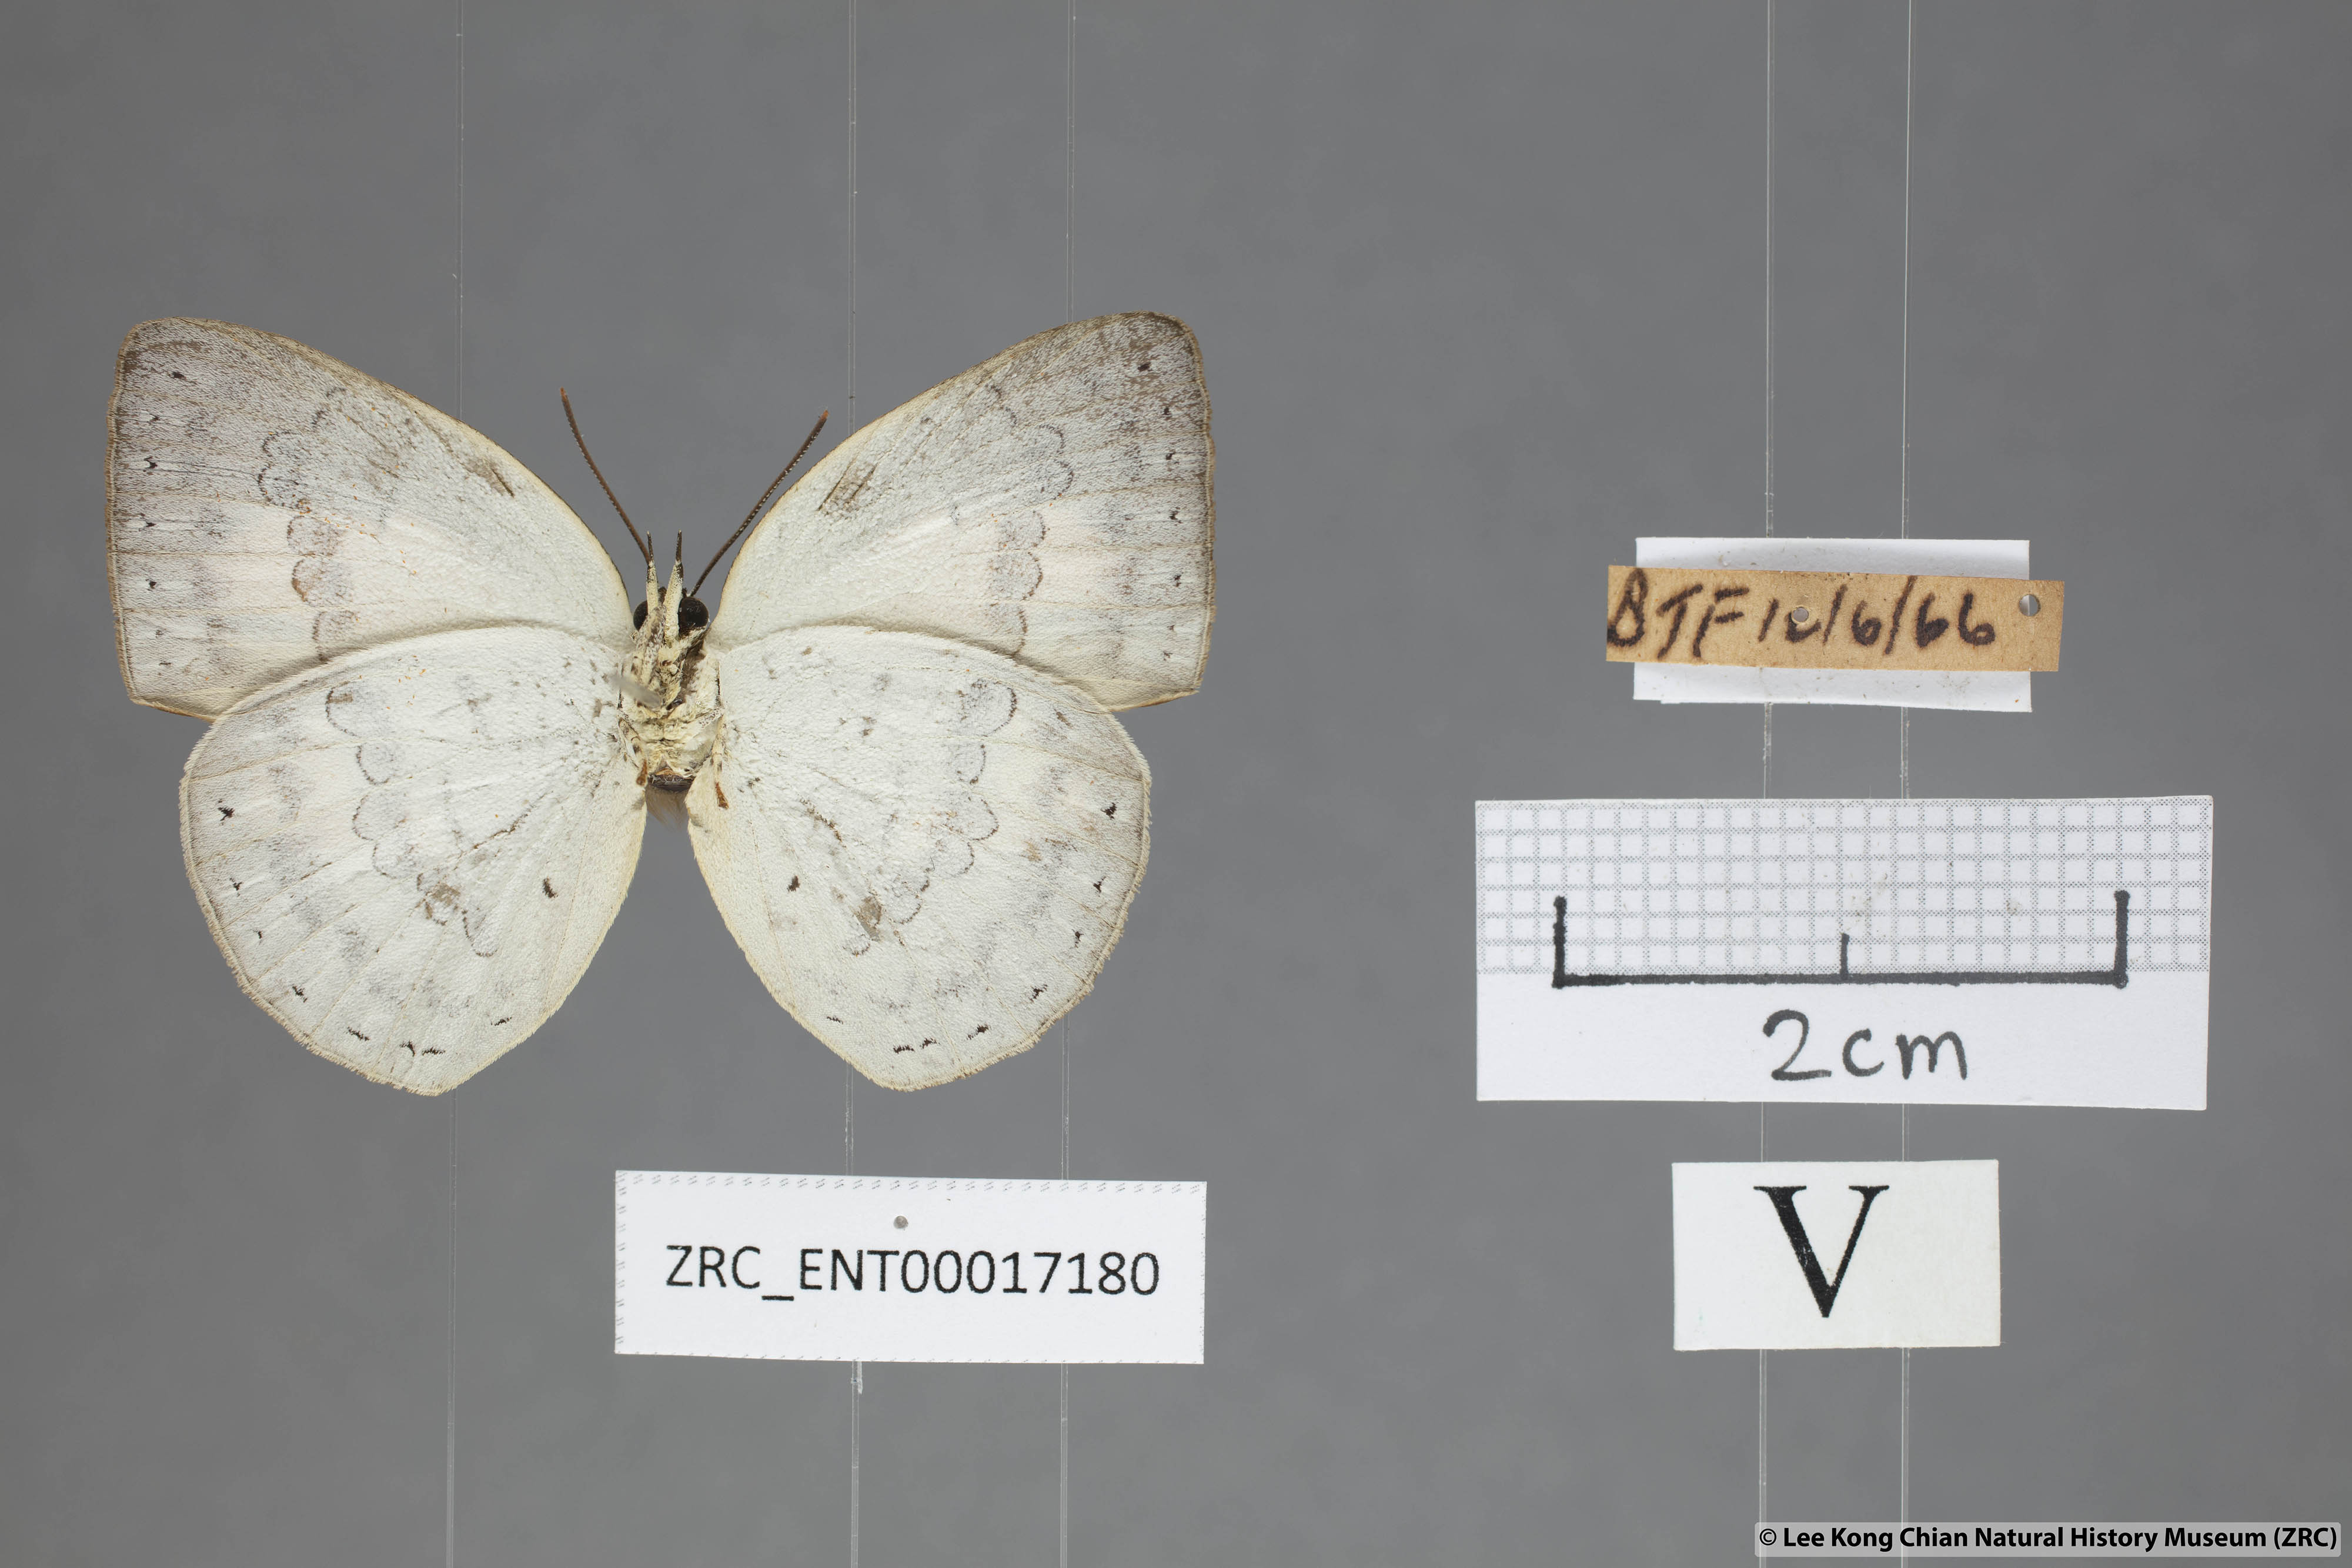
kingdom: Animalia
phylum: Arthropoda
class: Insecta
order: Lepidoptera
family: Lycaenidae
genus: Curetis
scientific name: Curetis tagalica
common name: Southern sunbeam
